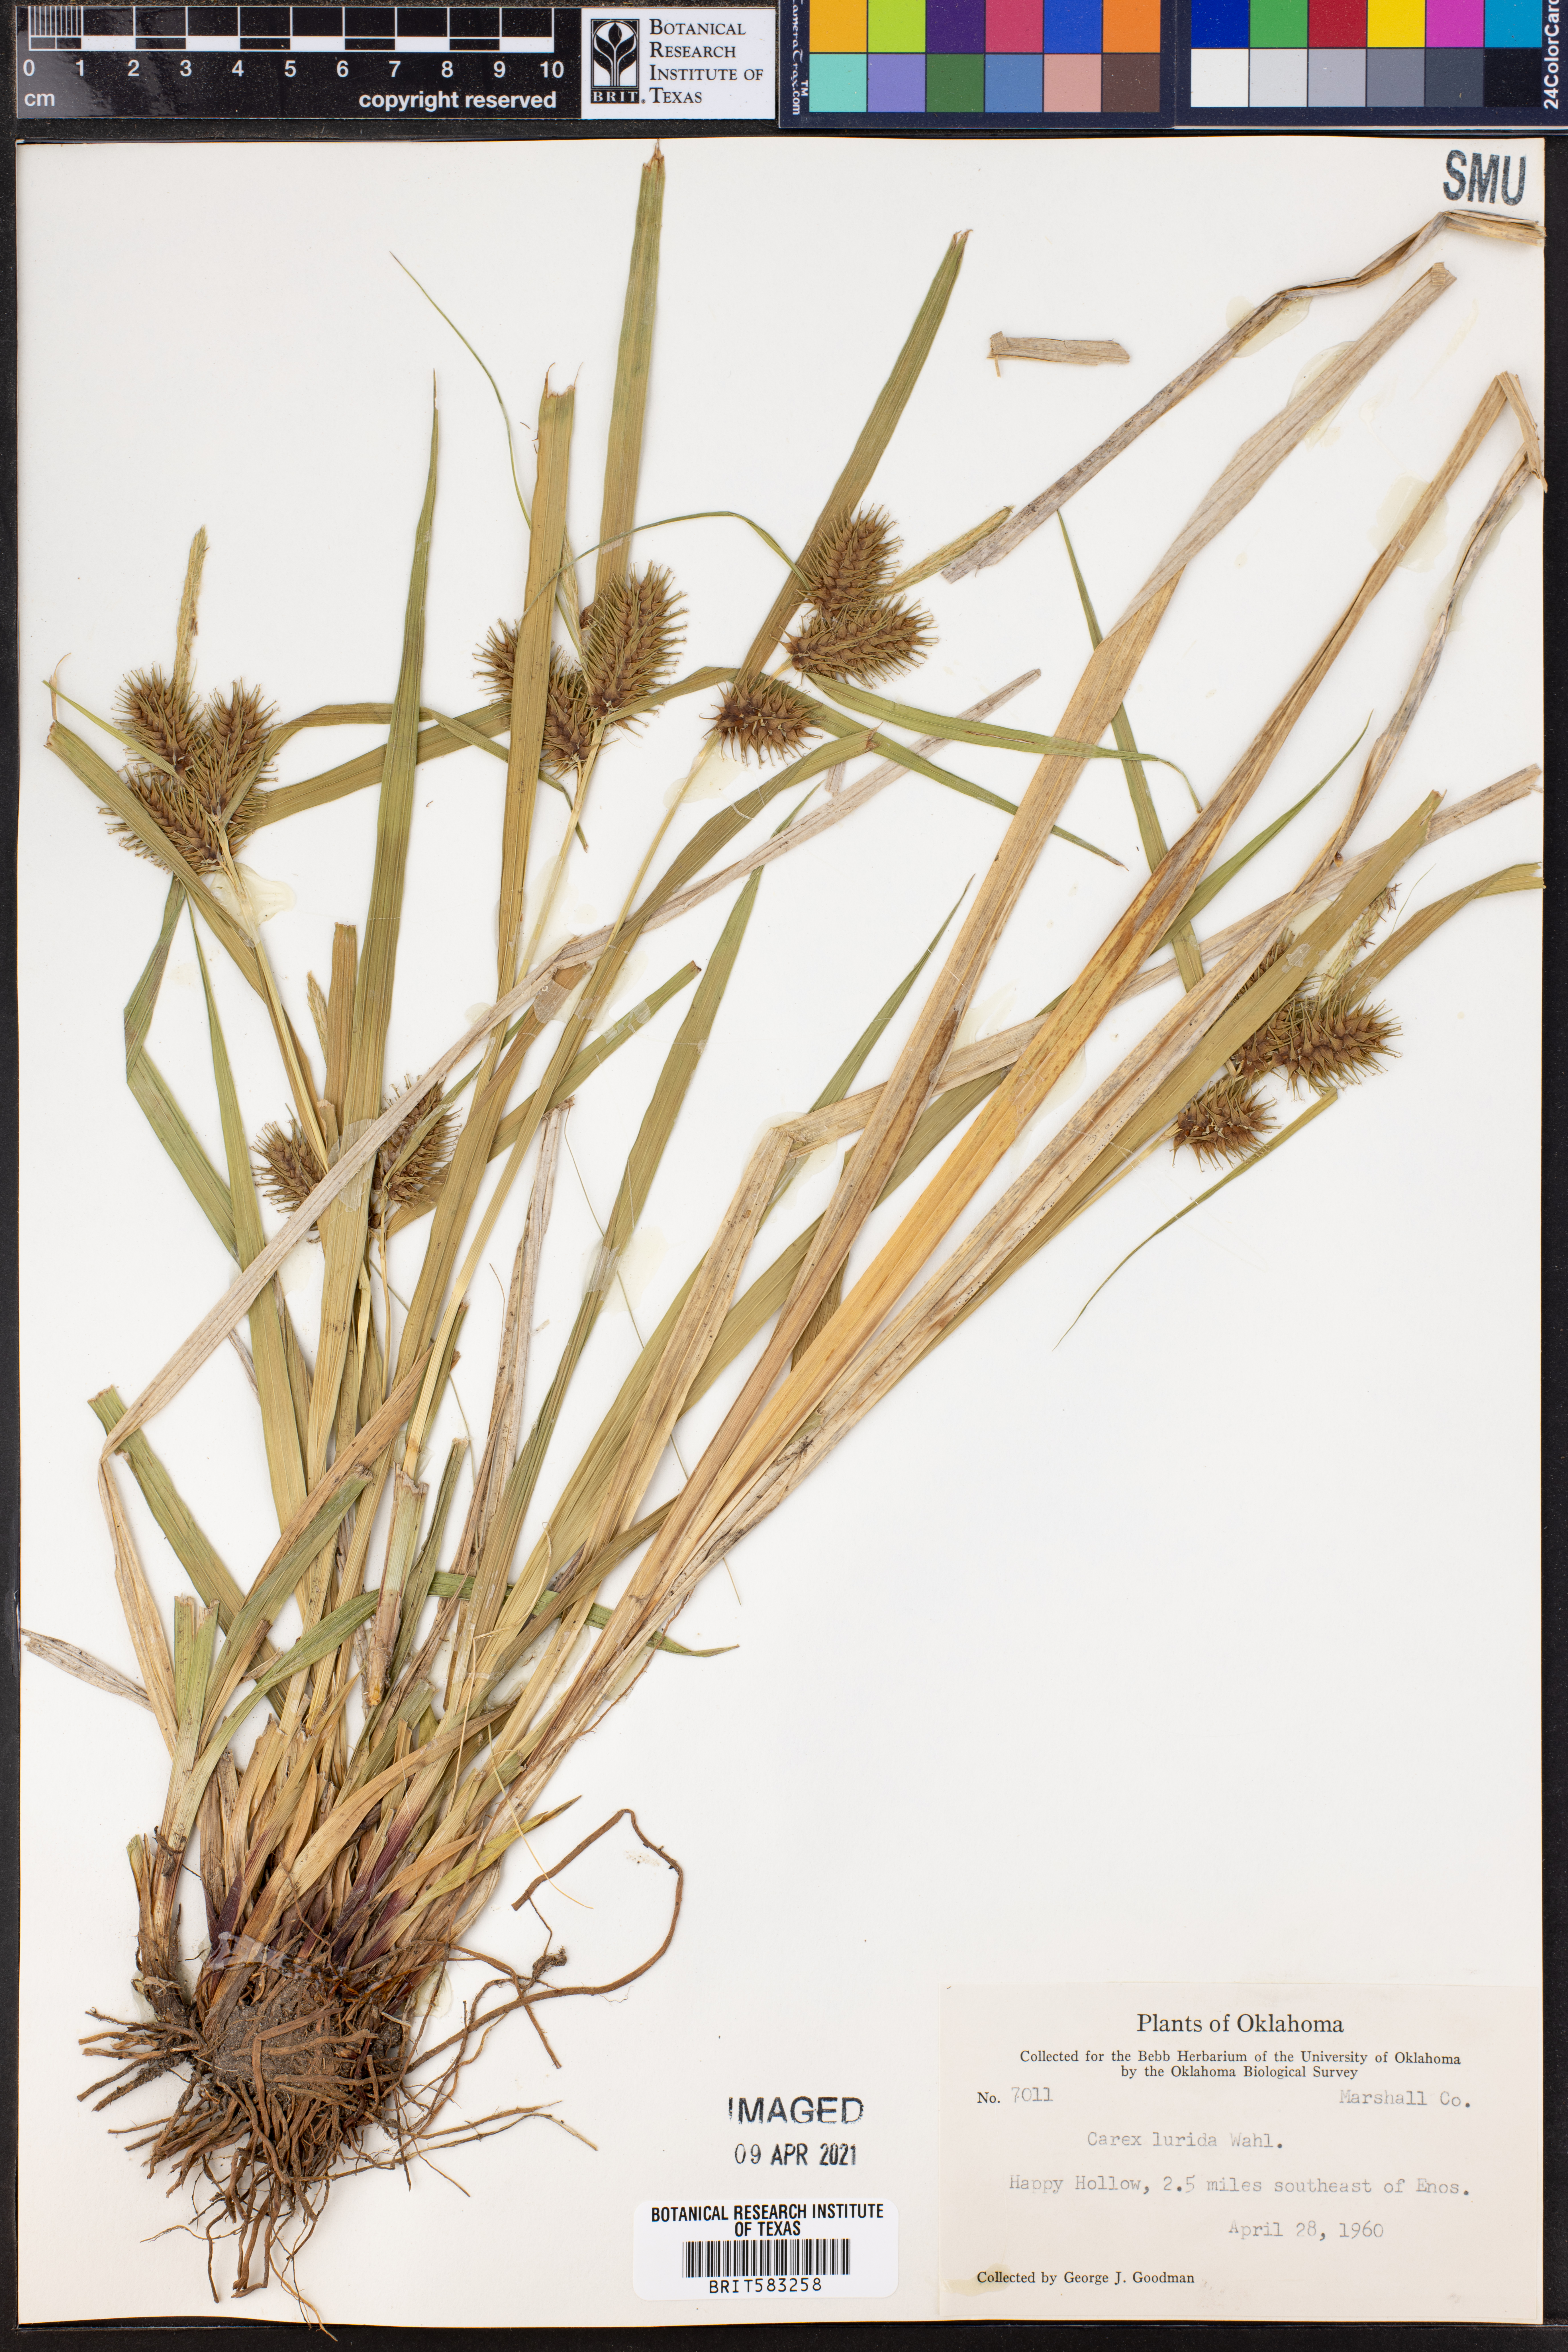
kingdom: Plantae
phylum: Tracheophyta
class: Liliopsida
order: Poales
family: Cyperaceae
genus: Carex
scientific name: Carex lurida
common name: Sallow sedge
